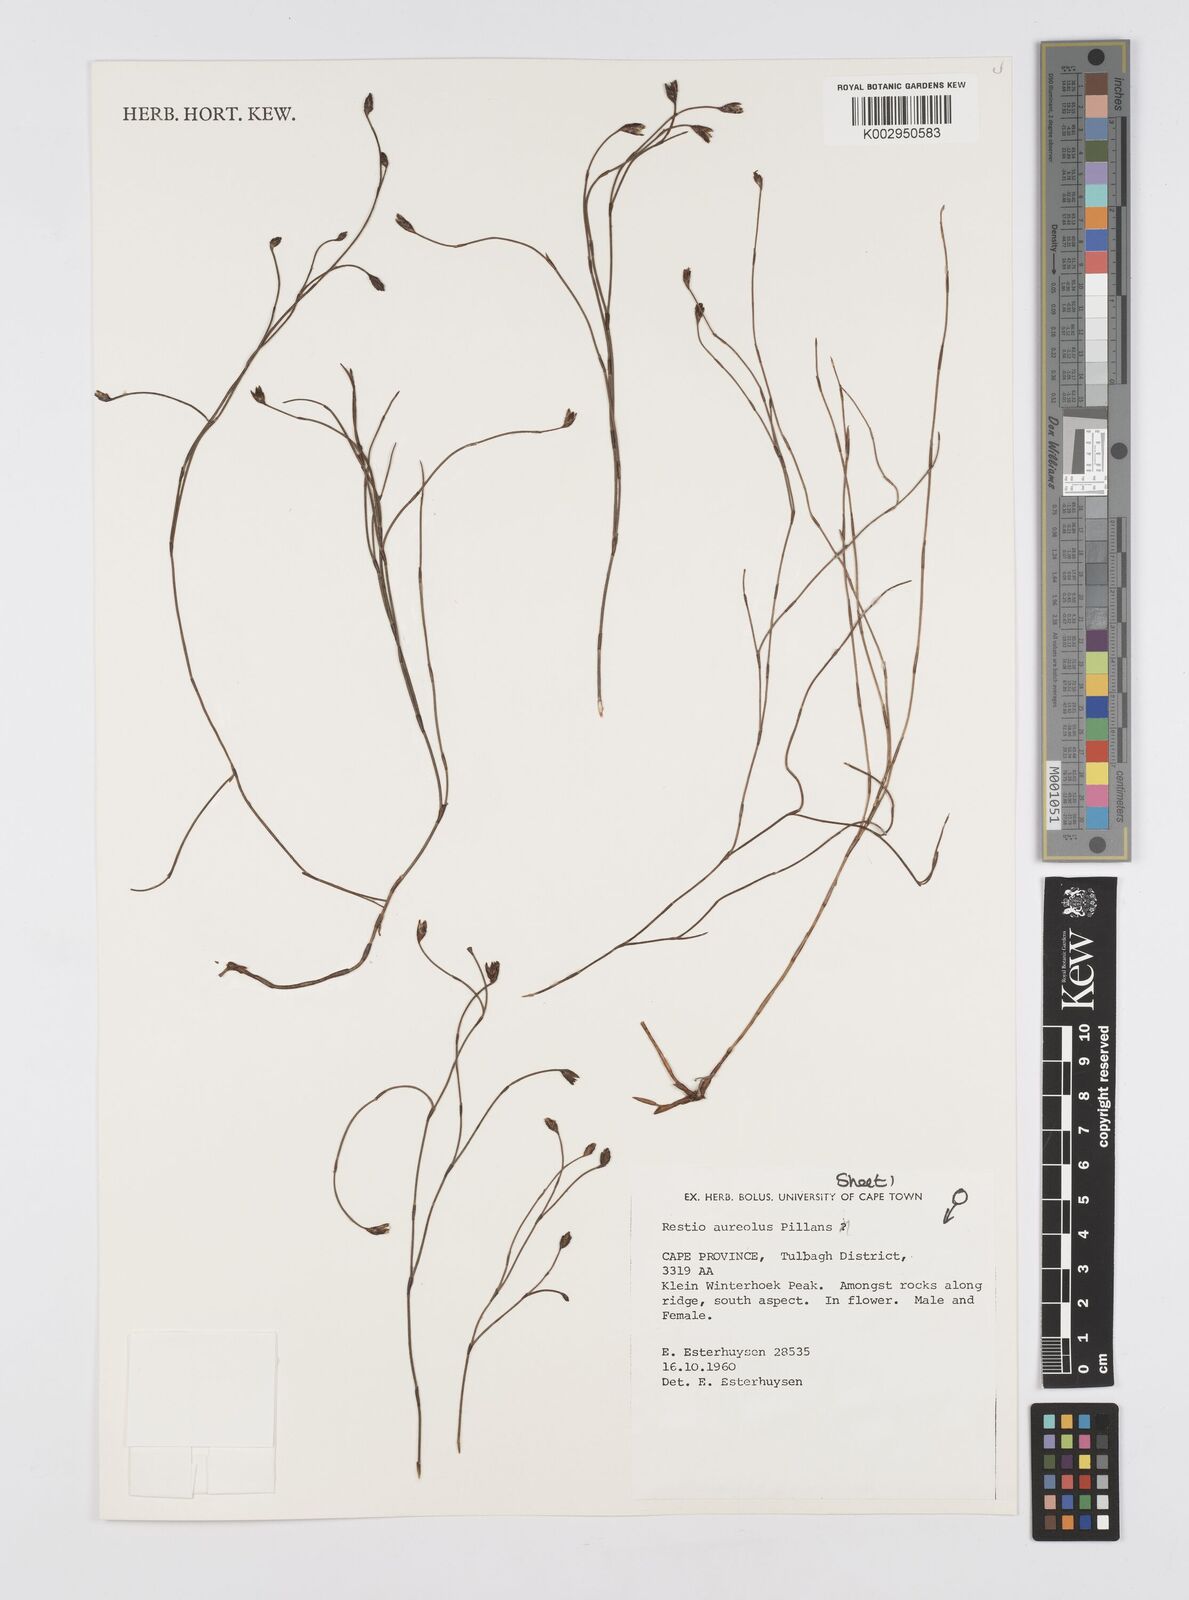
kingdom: Plantae
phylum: Tracheophyta
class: Liliopsida
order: Poales
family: Restionaceae
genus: Restio
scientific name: Restio aureolus
